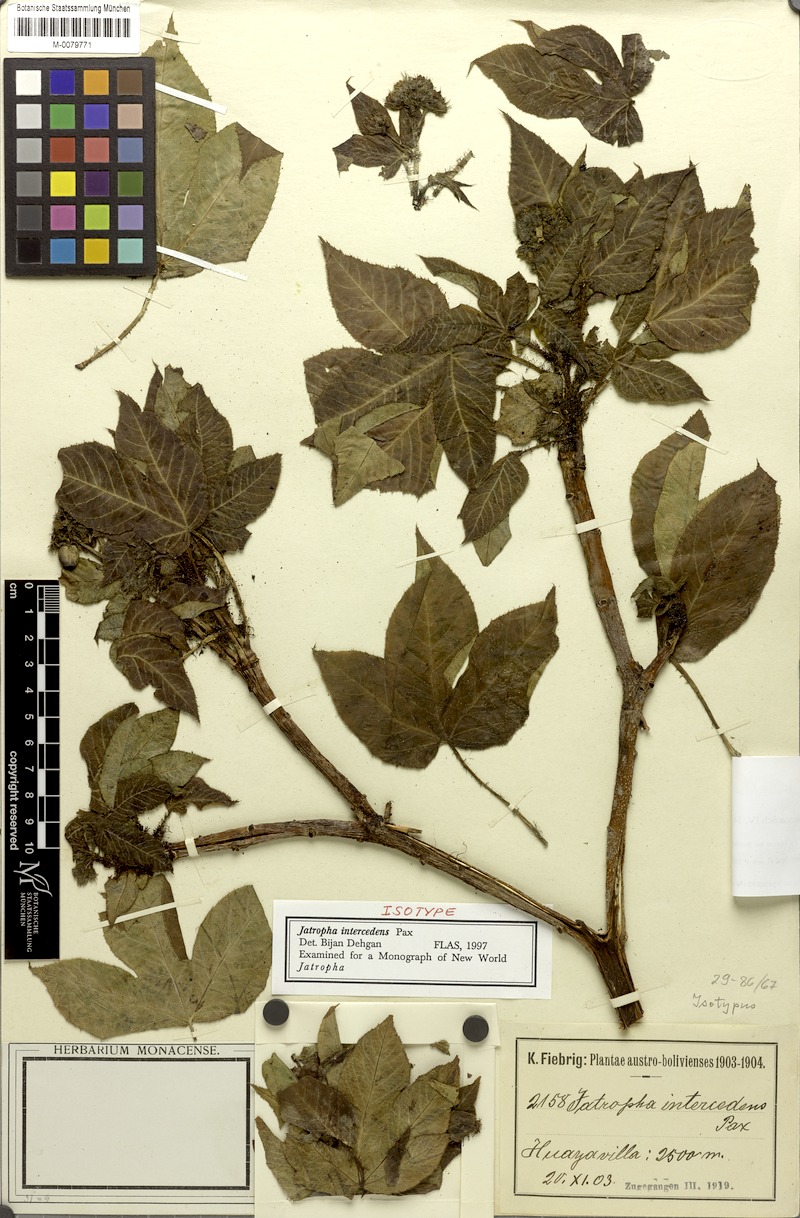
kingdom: Plantae
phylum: Tracheophyta
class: Magnoliopsida
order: Malpighiales
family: Euphorbiaceae
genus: Jatropha
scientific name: Jatropha excisa
